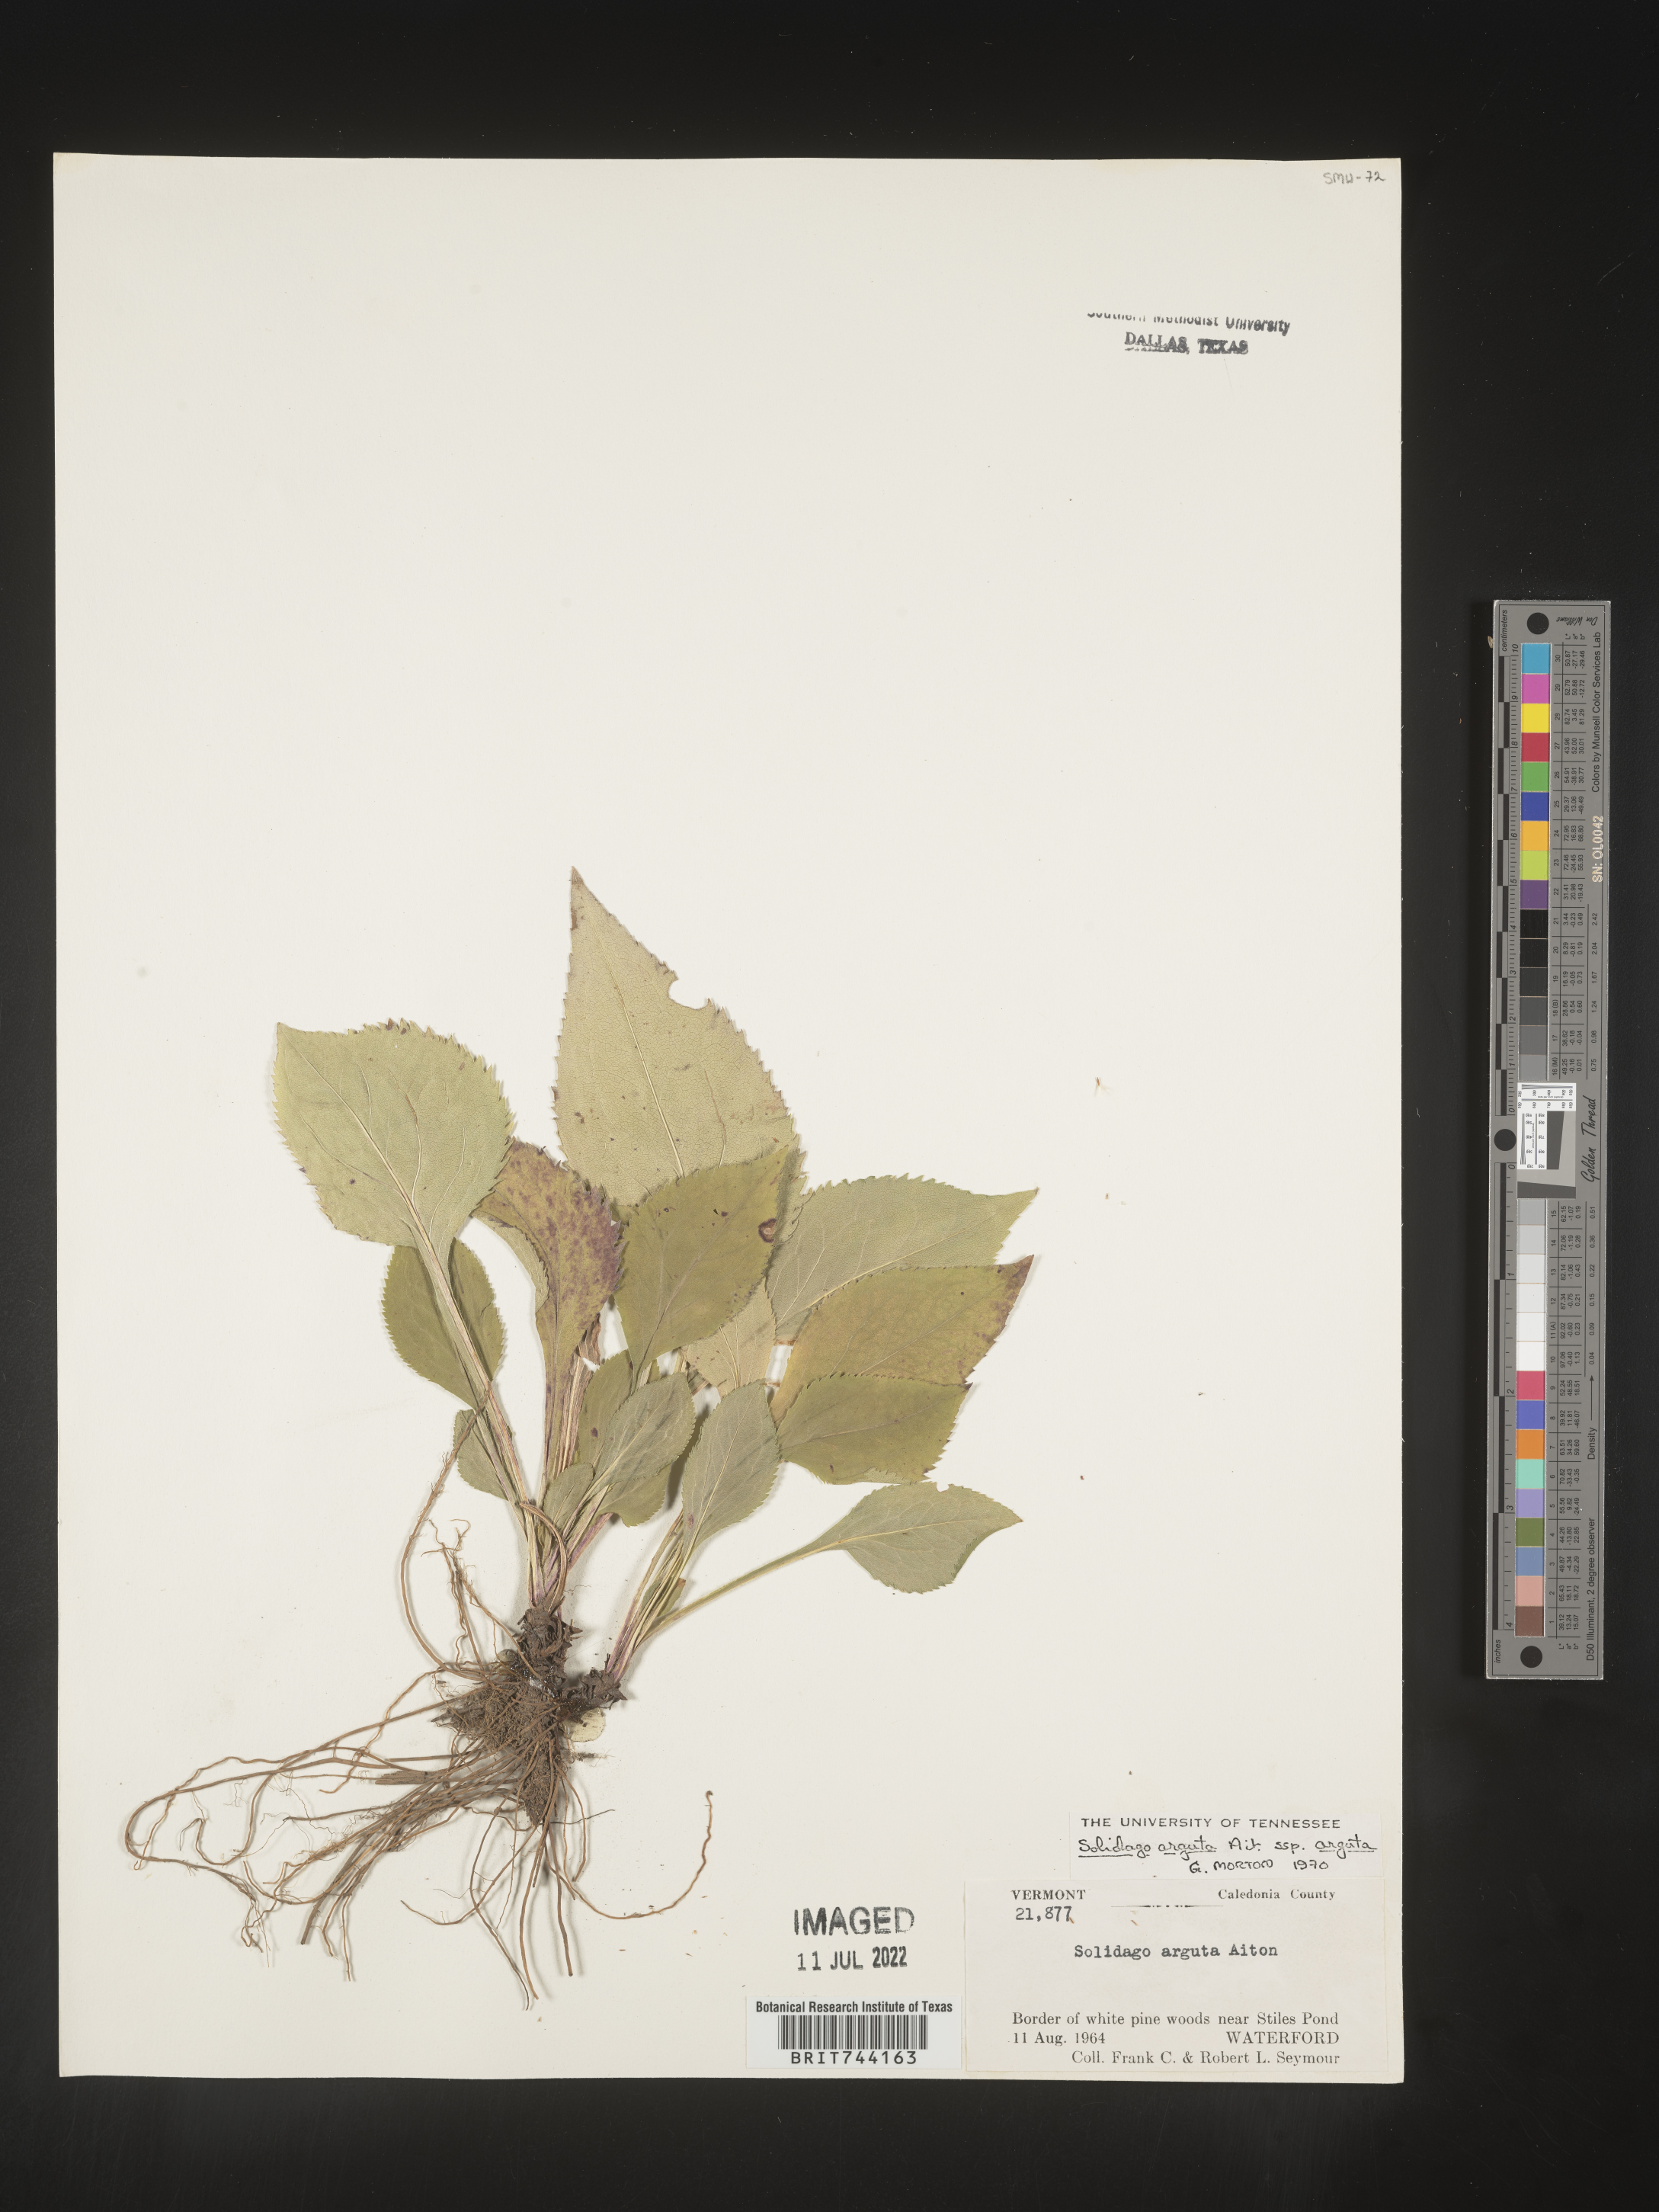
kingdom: Plantae
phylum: Tracheophyta
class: Magnoliopsida
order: Asterales
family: Asteraceae
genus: Solidago
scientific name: Solidago arguta
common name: Atlantic goldenrod
